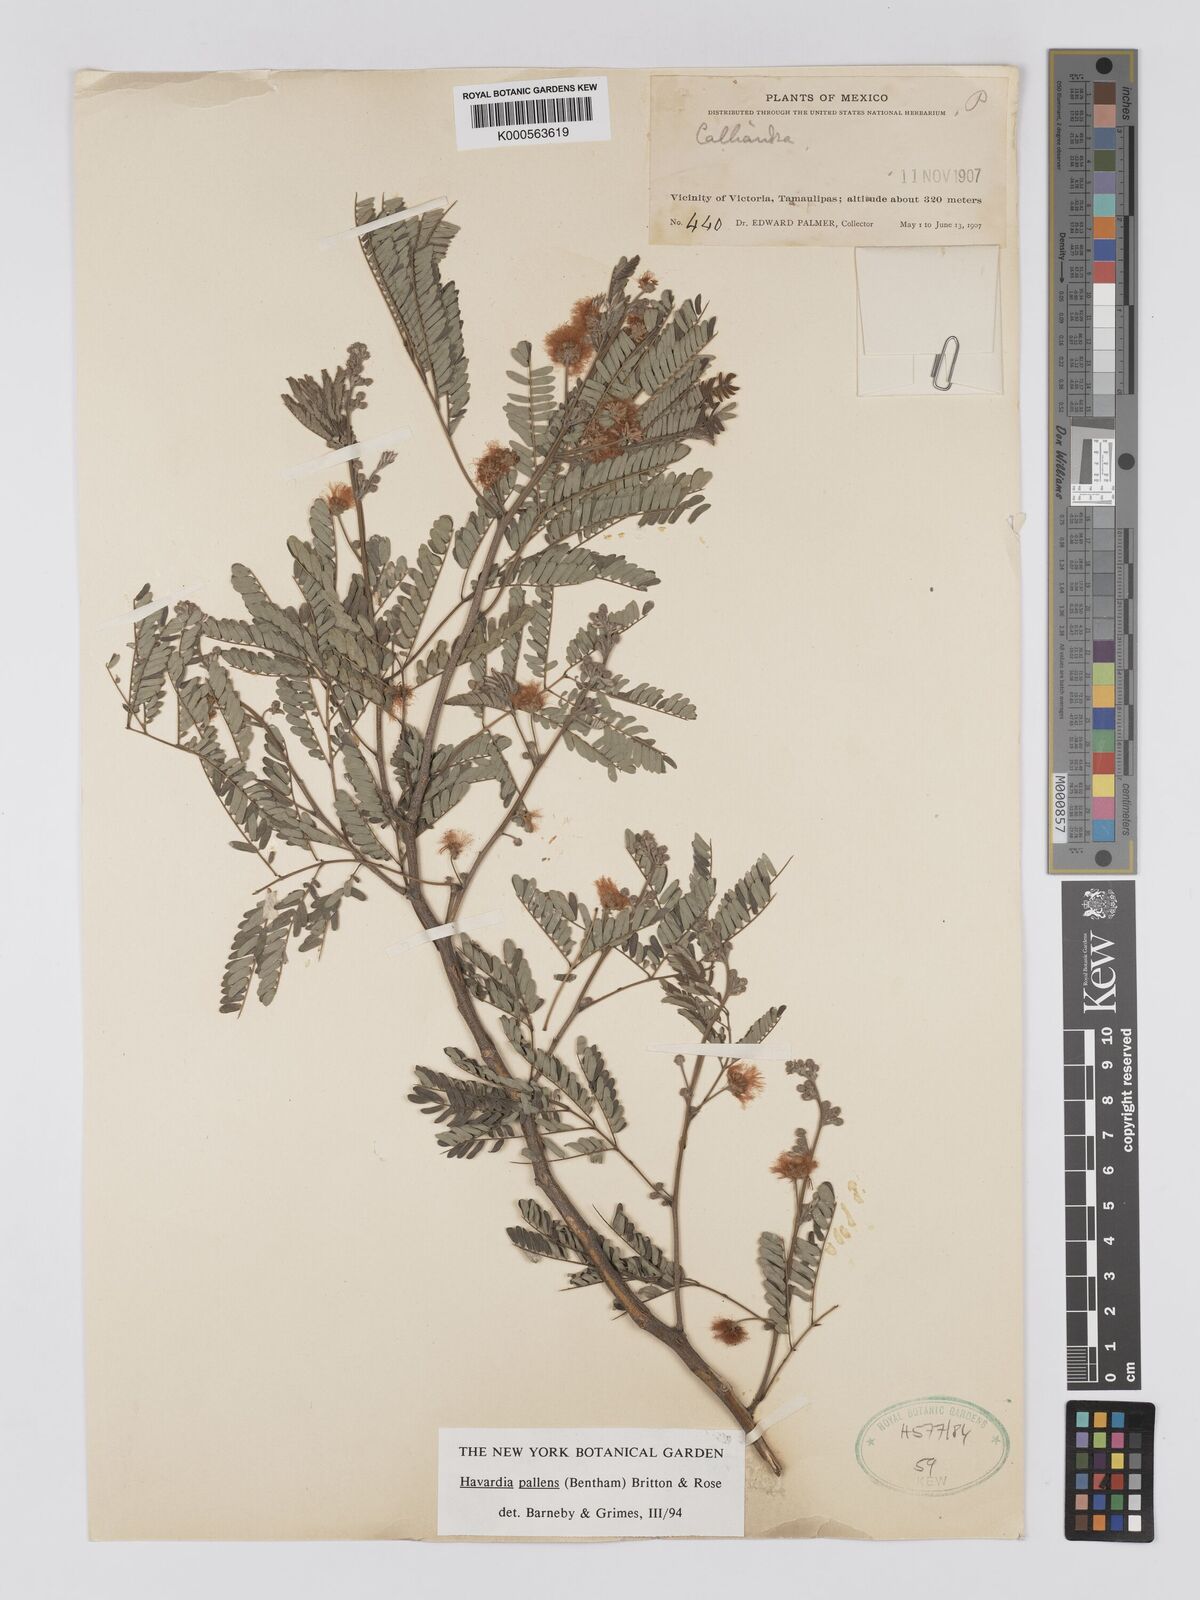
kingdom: Plantae
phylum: Tracheophyta
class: Magnoliopsida
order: Fabales
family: Fabaceae
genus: Havardia
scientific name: Havardia pallens
